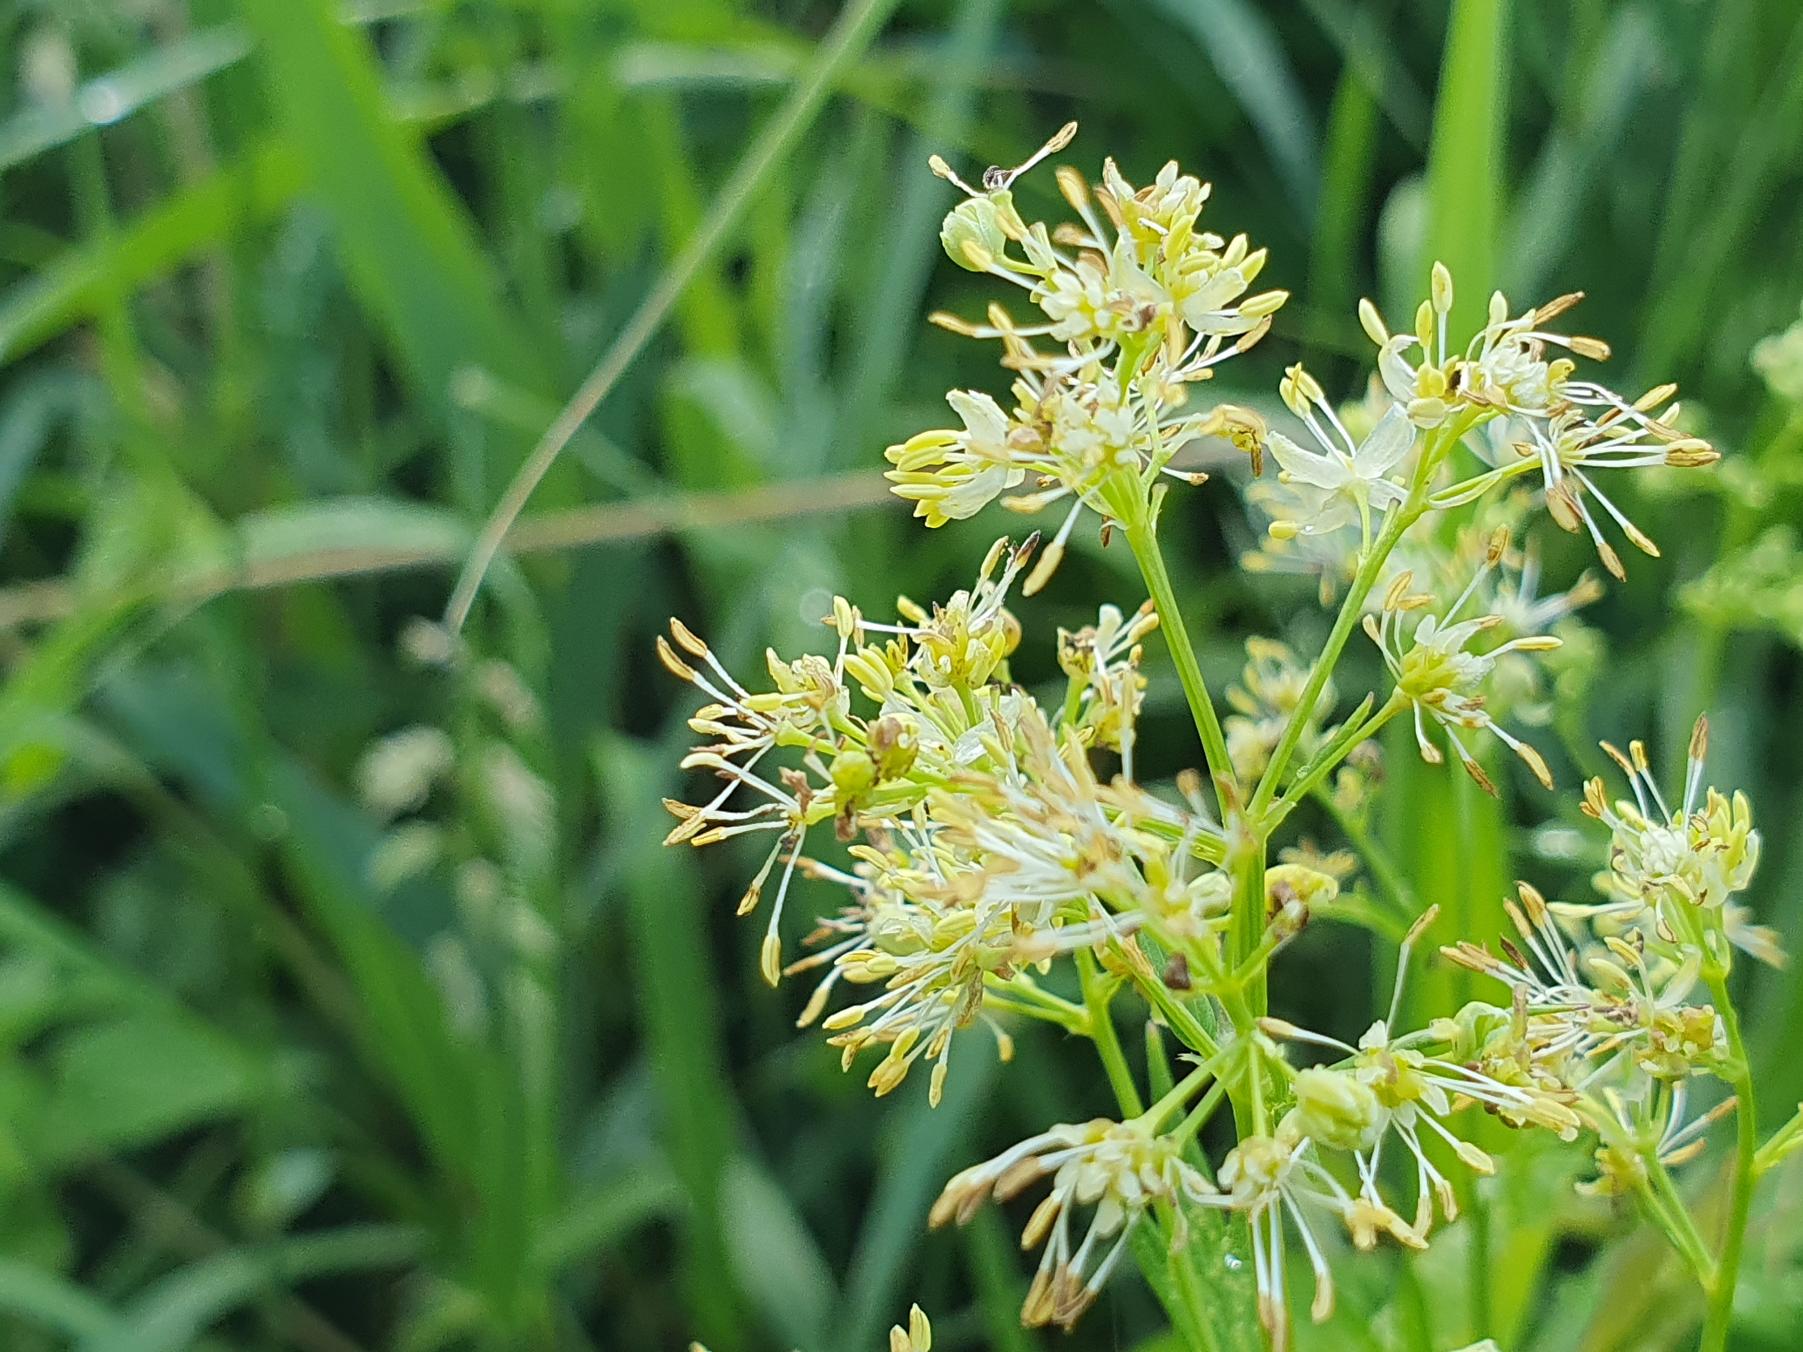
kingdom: Plantae
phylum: Tracheophyta
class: Magnoliopsida
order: Ranunculales
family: Ranunculaceae
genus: Thalictrum
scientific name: Thalictrum flavum
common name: Gul frøstjerne
